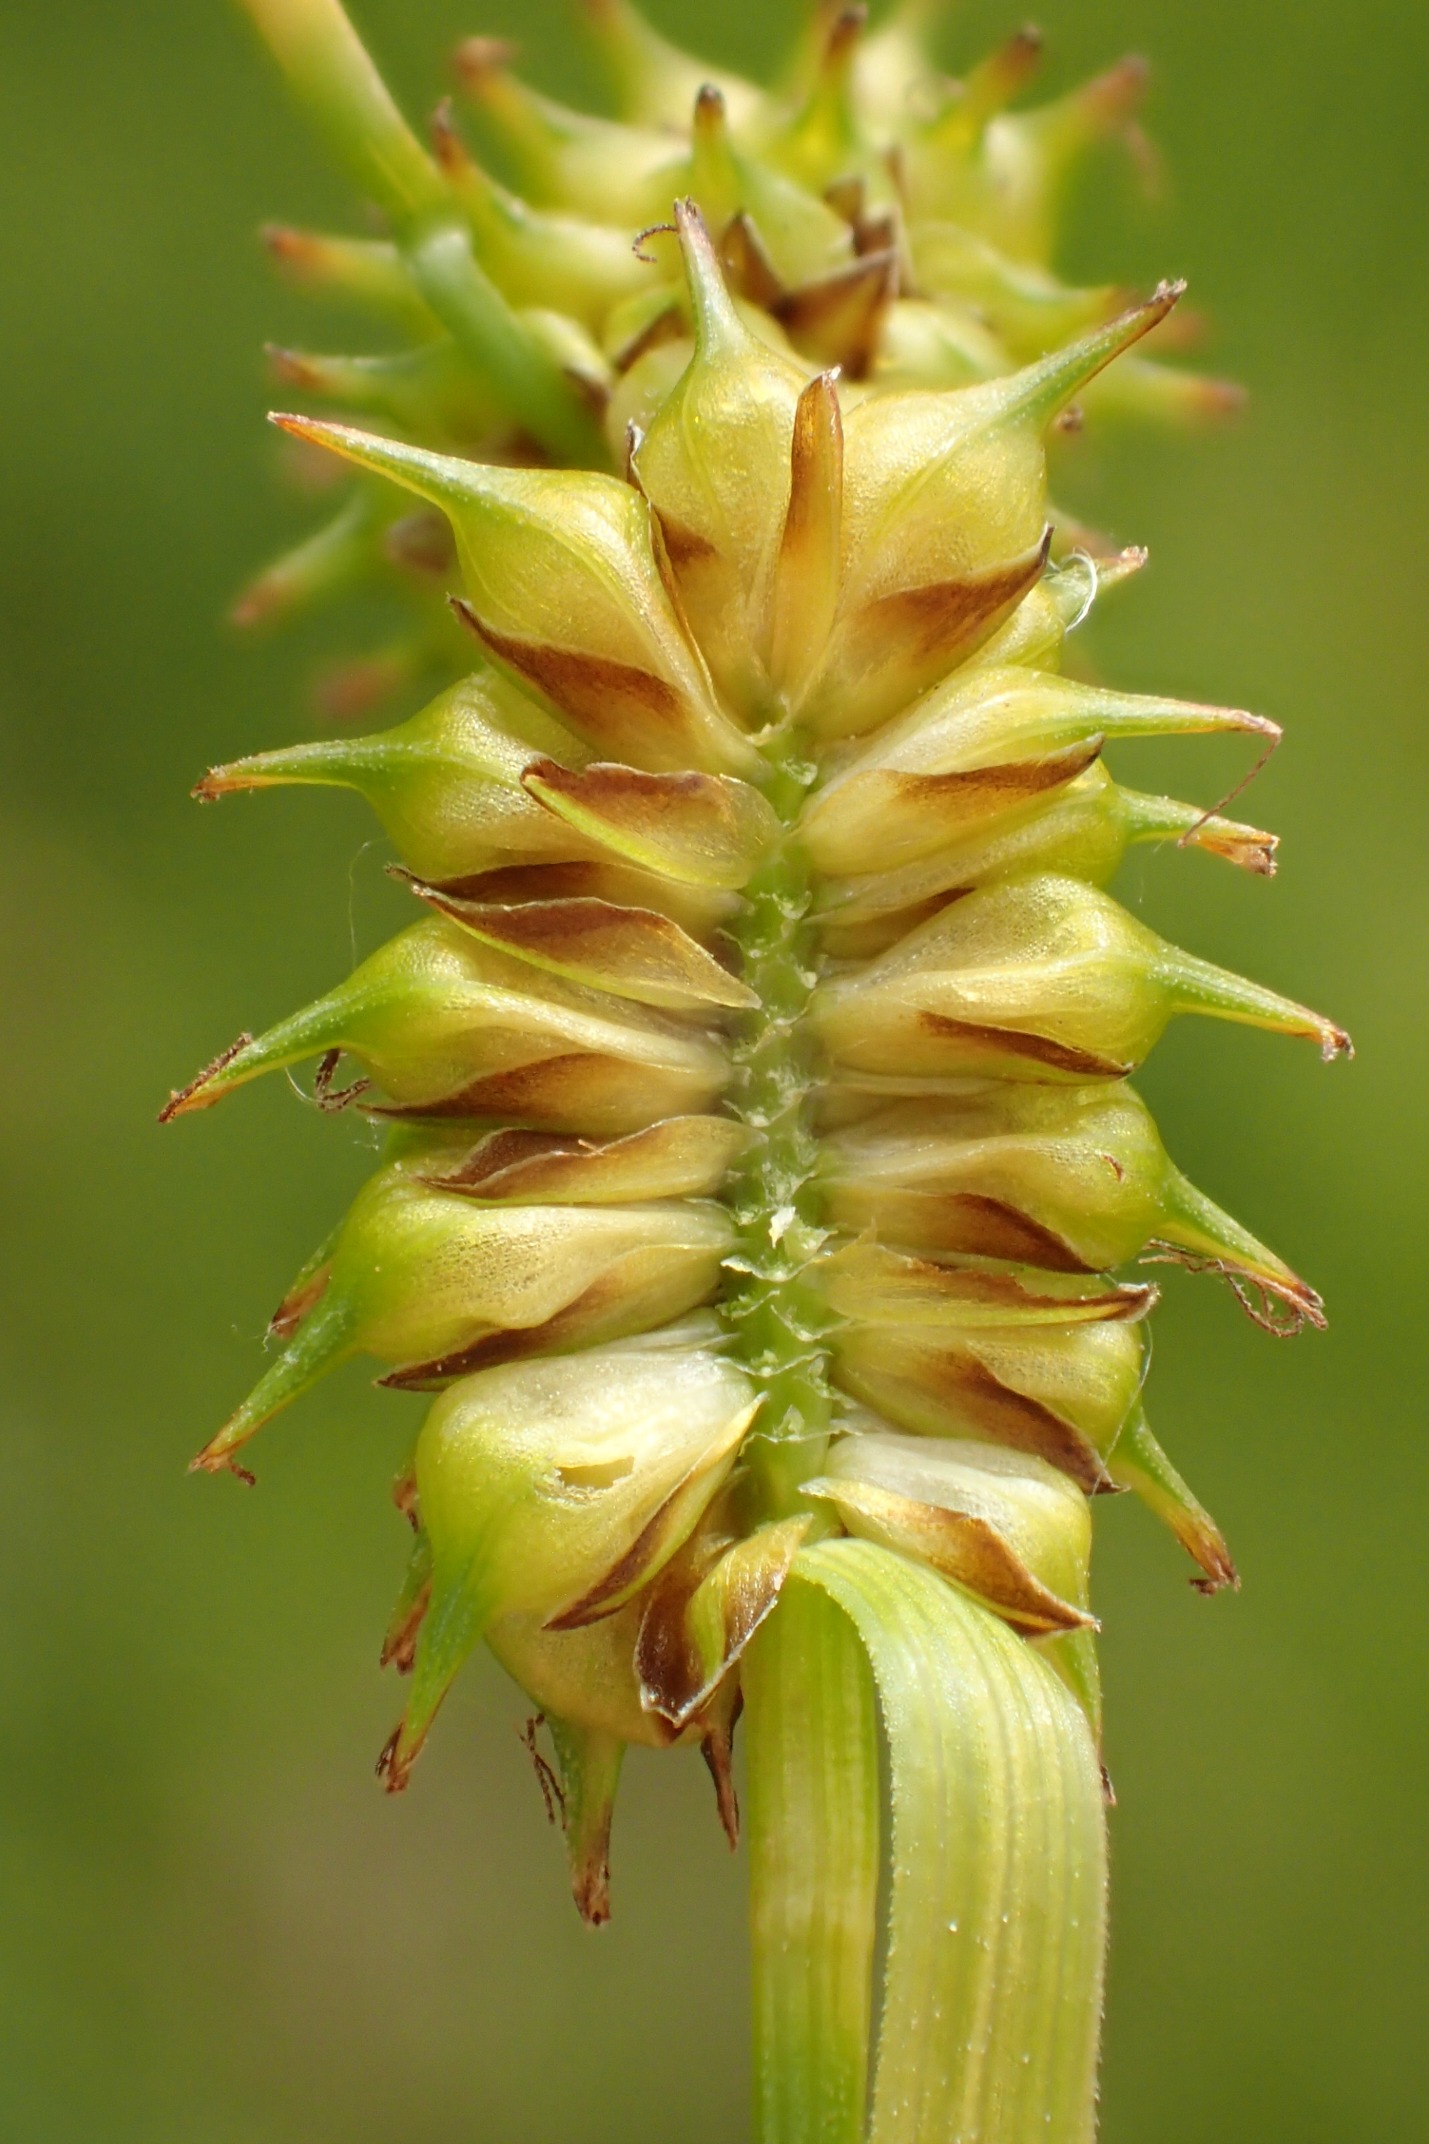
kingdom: Plantae
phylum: Tracheophyta
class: Liliopsida
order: Poales
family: Cyperaceae
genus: Carex
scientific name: Carex lepidocarpa
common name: Krognæb-star
